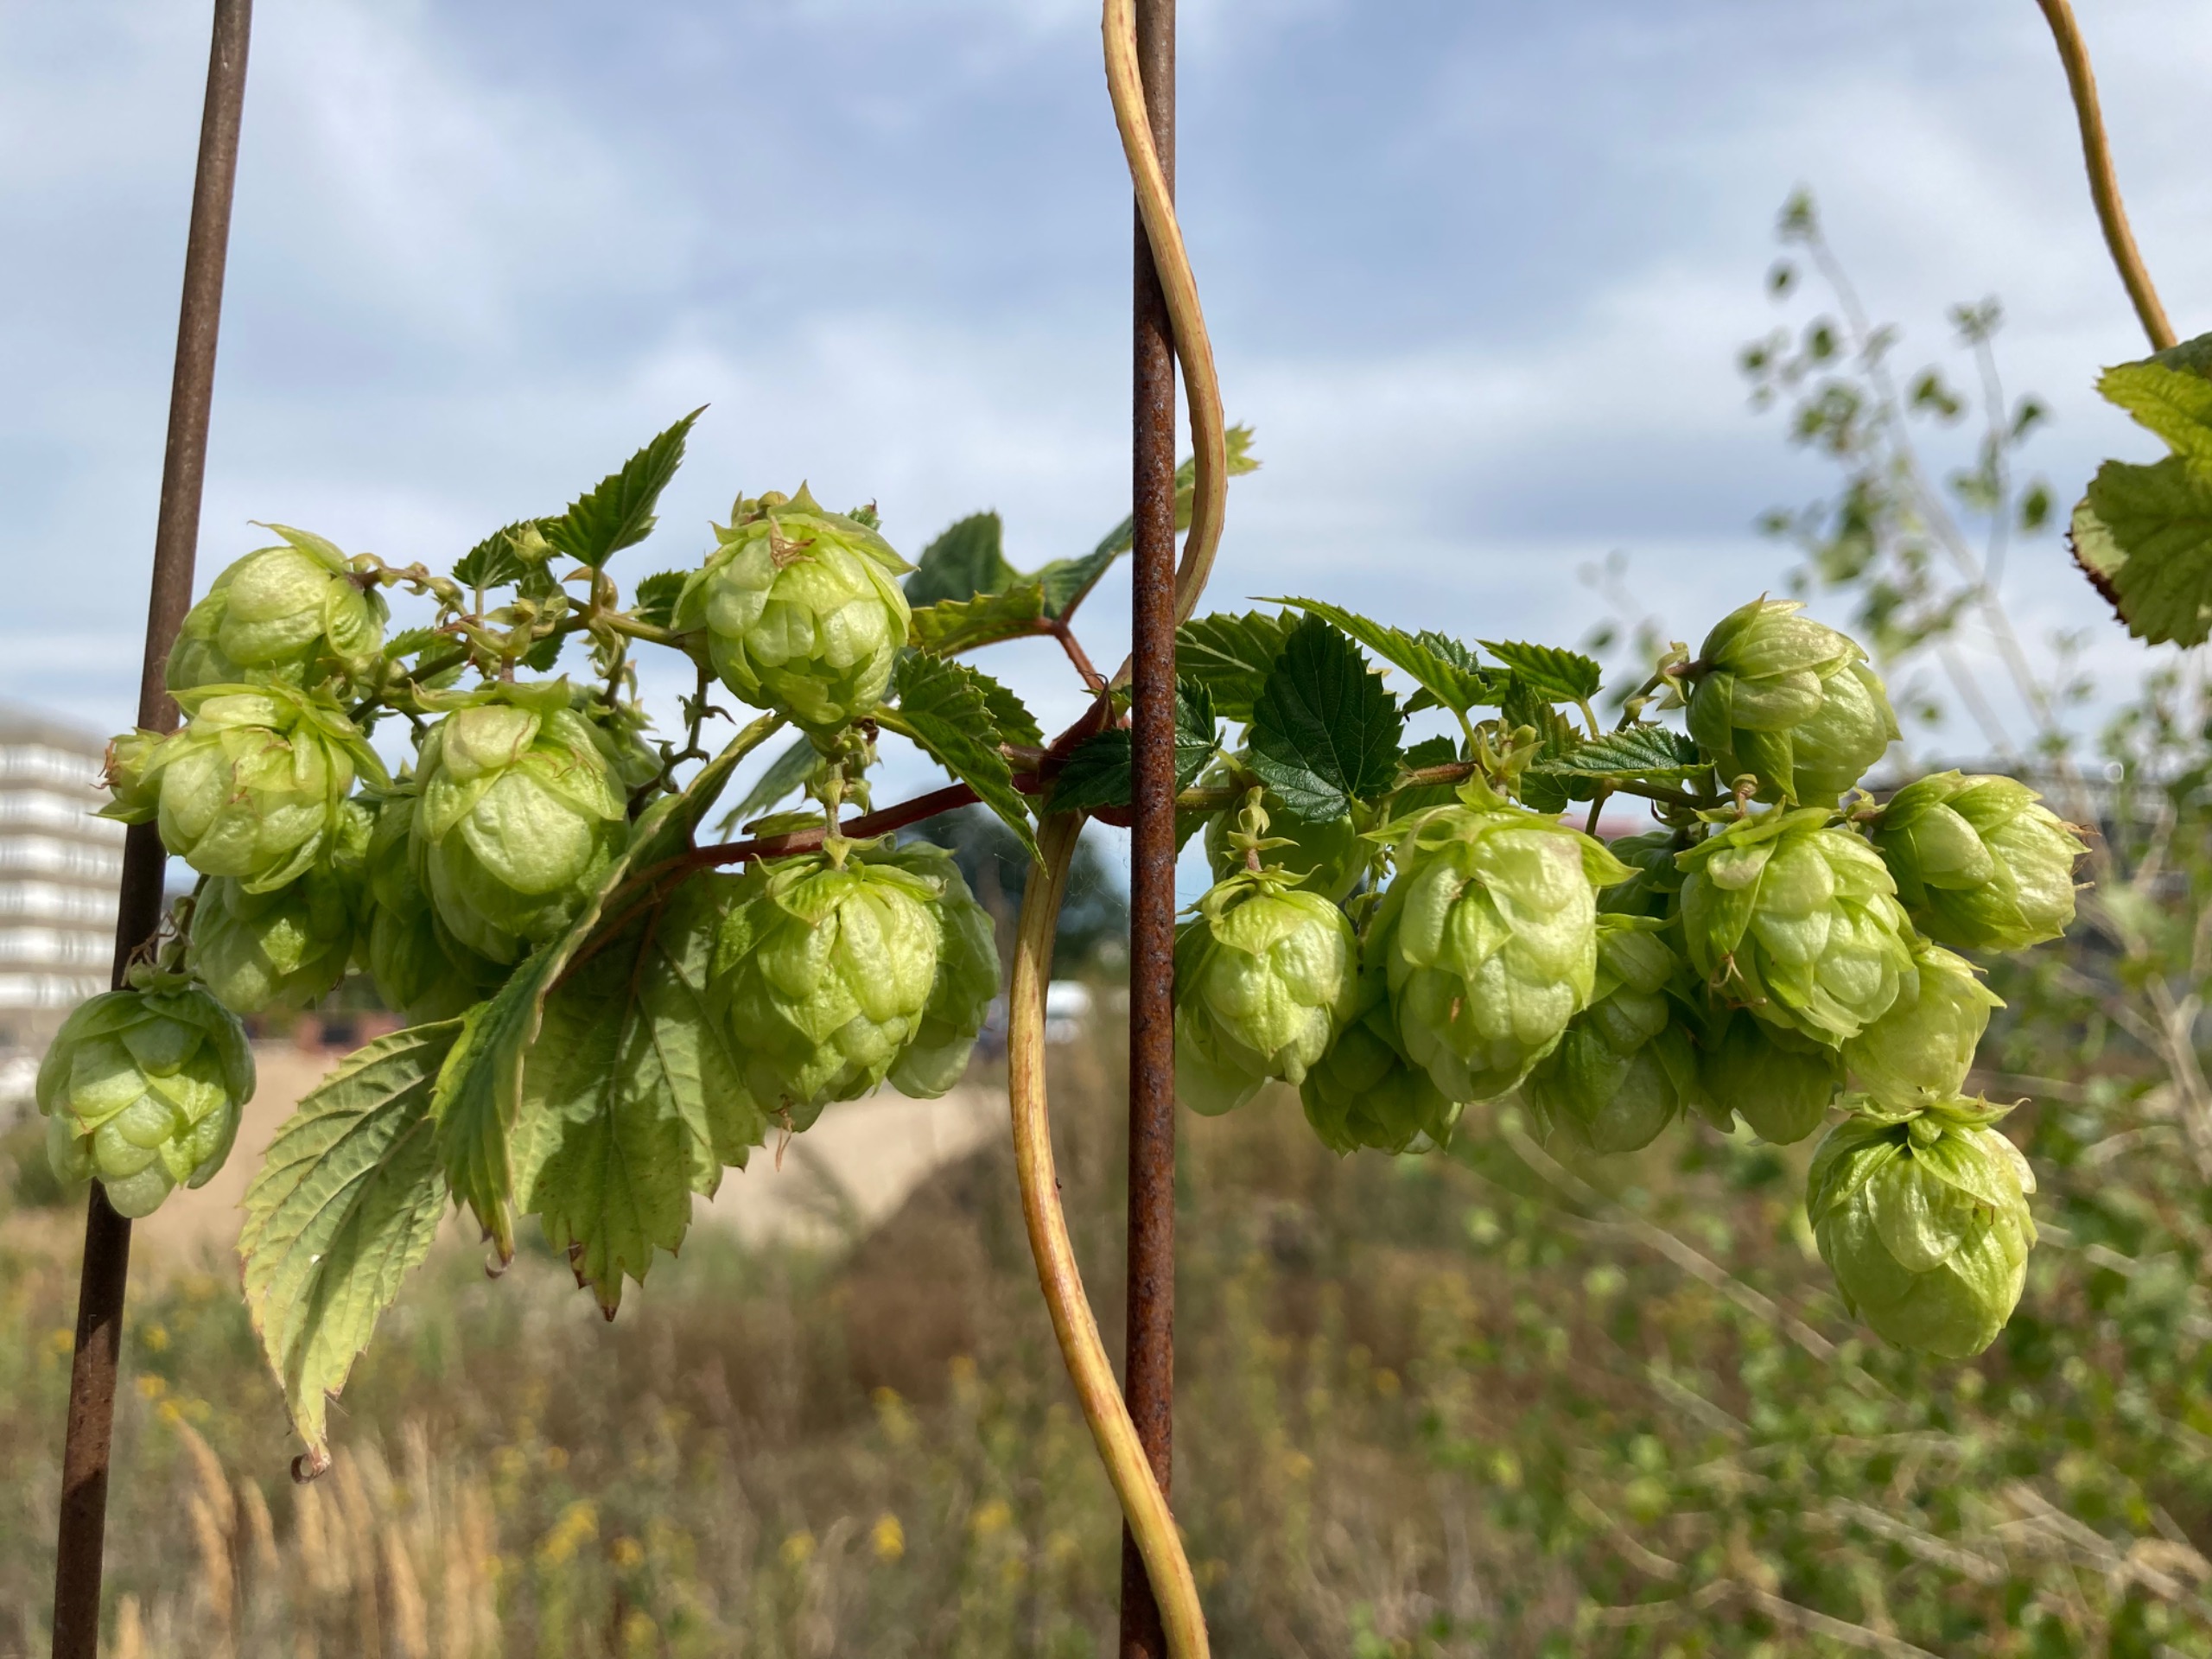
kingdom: Plantae
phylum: Tracheophyta
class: Magnoliopsida
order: Rosales
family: Cannabaceae
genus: Humulus
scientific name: Humulus lupulus
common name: Humle
